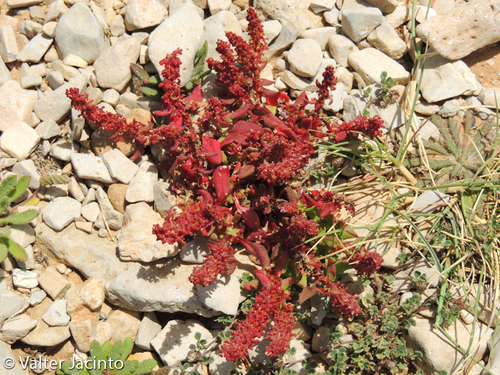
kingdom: Plantae
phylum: Tracheophyta
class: Magnoliopsida
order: Caryophyllales
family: Polygonaceae
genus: Rumex
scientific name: Rumex bucephalophorus
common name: Red dock
